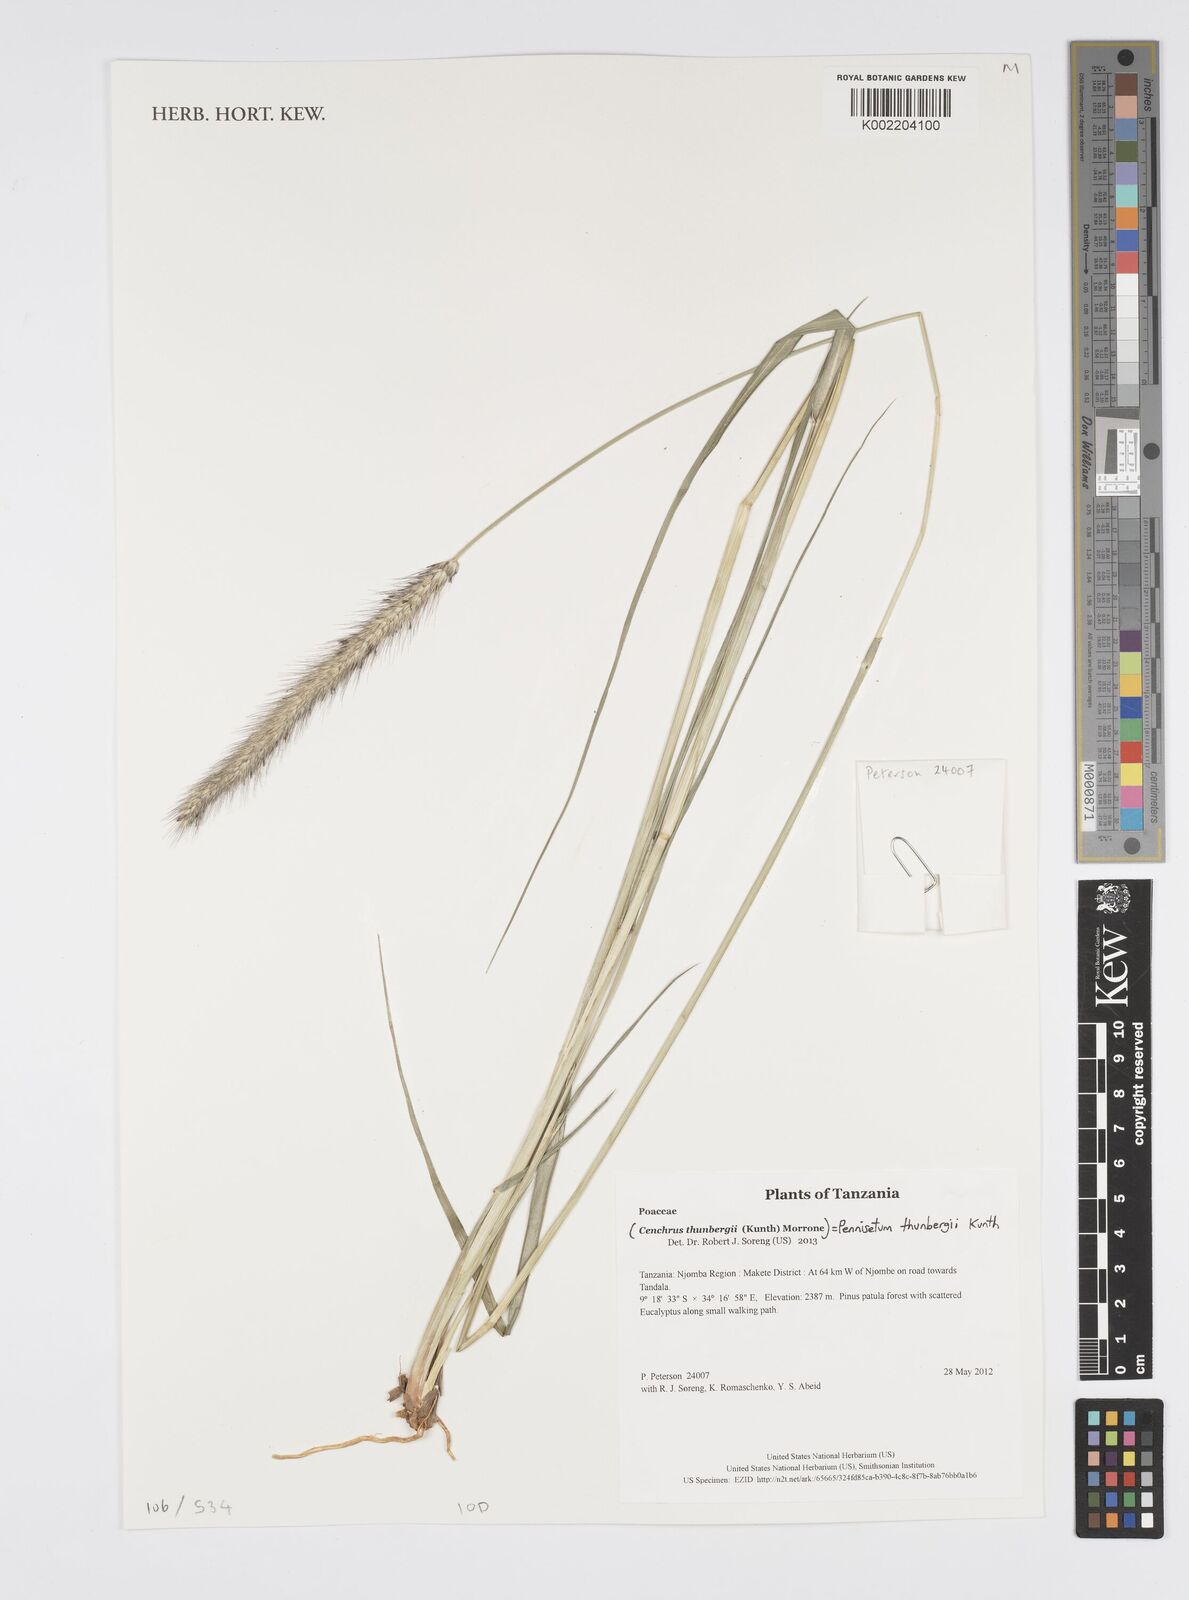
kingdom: Plantae
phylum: Tracheophyta
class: Liliopsida
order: Poales
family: Poaceae
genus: Cenchrus
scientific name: Cenchrus geniculatus
